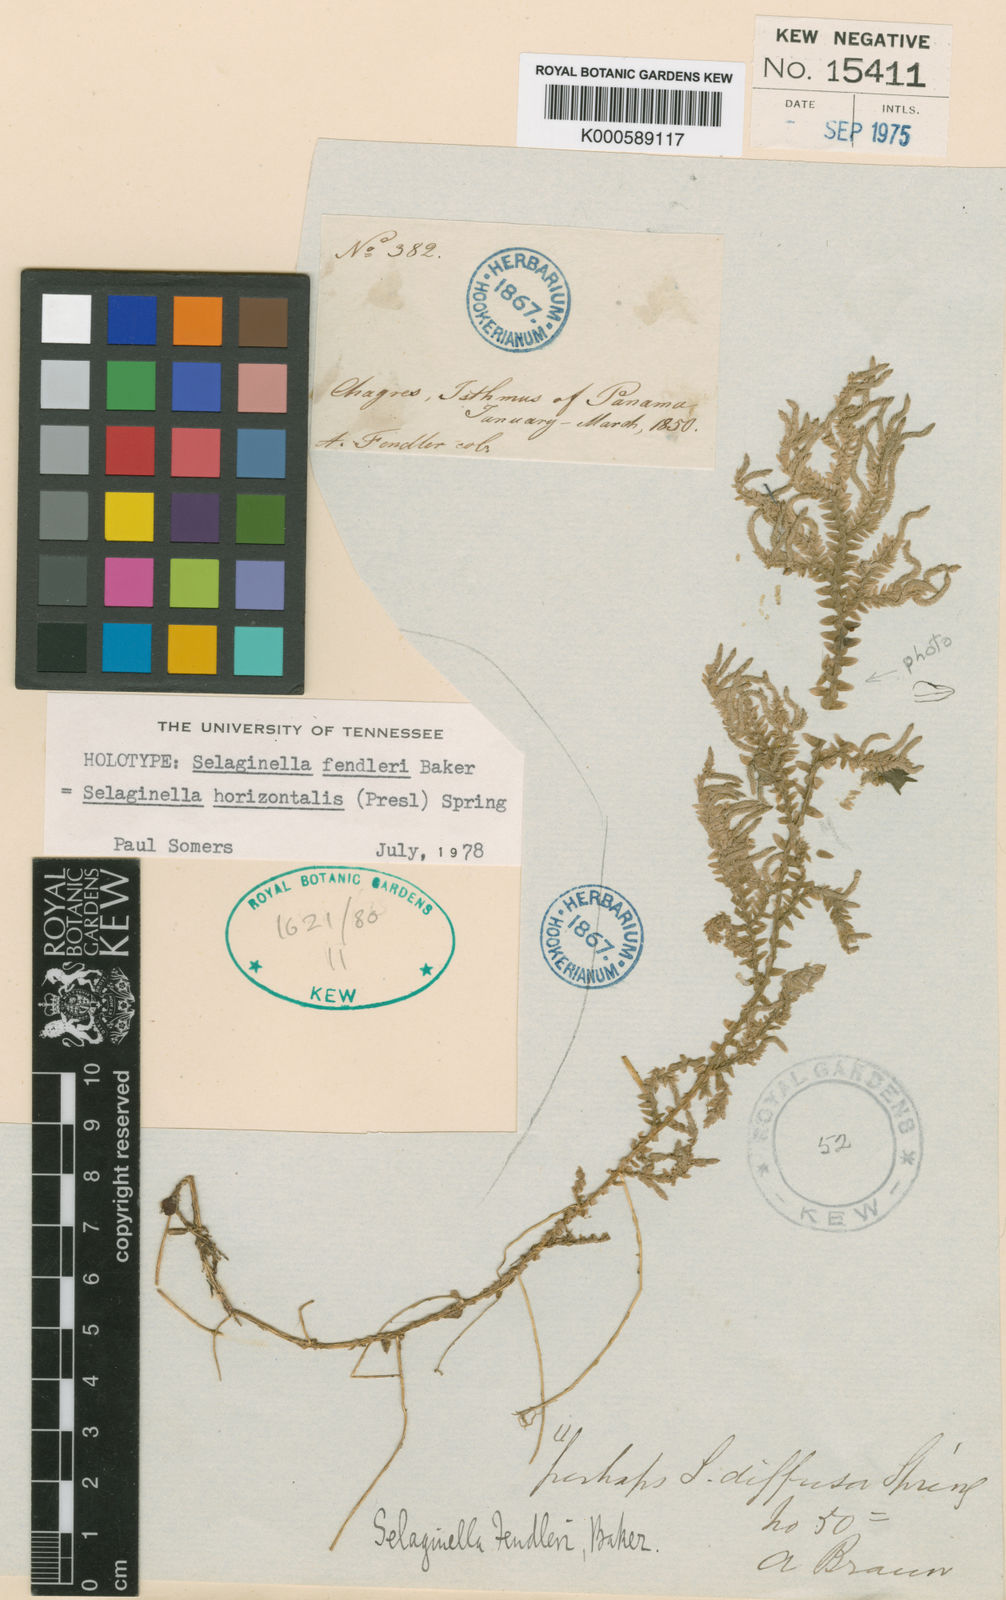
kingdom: Plantae
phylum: Tracheophyta
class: Lycopodiopsida
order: Selaginellales
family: Selaginellaceae
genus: Selaginella
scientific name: Selaginella horizontalis
